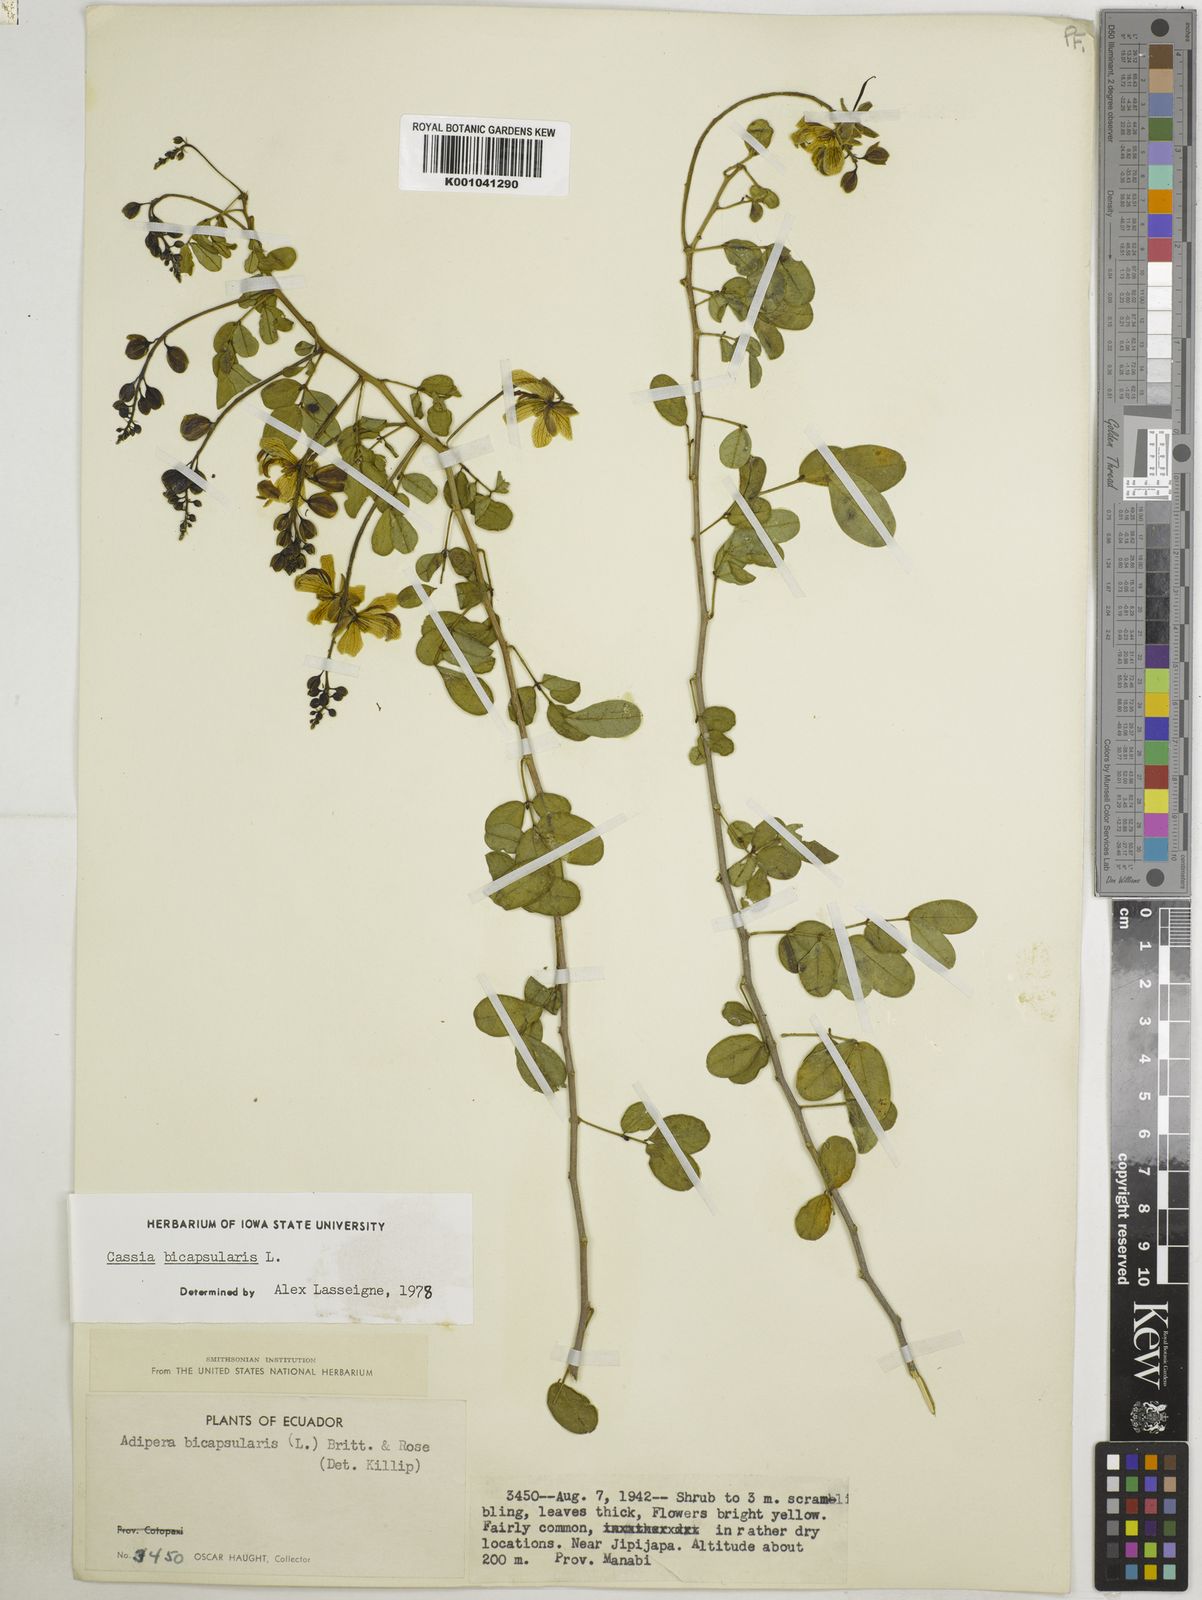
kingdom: Plantae
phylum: Tracheophyta
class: Magnoliopsida
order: Fabales
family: Fabaceae
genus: Senna
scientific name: Senna bicapsularis
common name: Christmasbush
